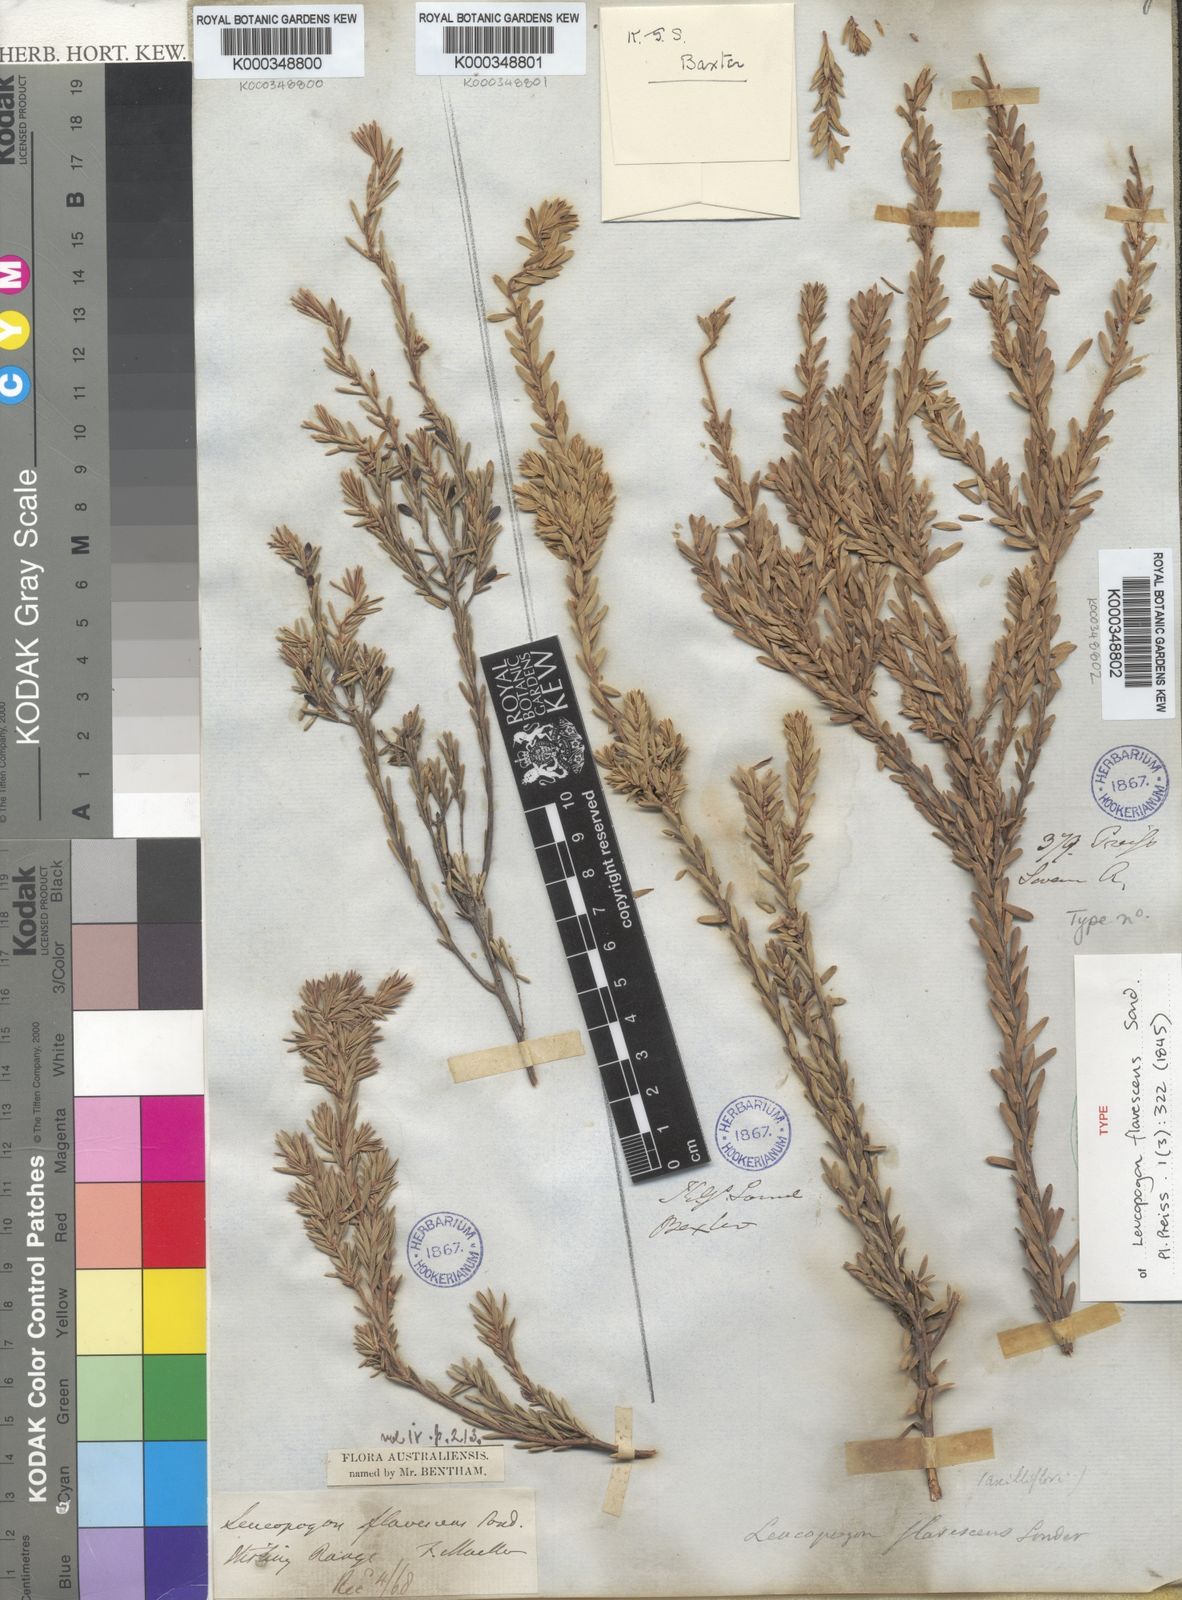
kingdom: Plantae
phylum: Tracheophyta
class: Magnoliopsida
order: Ericales
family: Ericaceae
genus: Styphelia
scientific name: Styphelia flavescens
